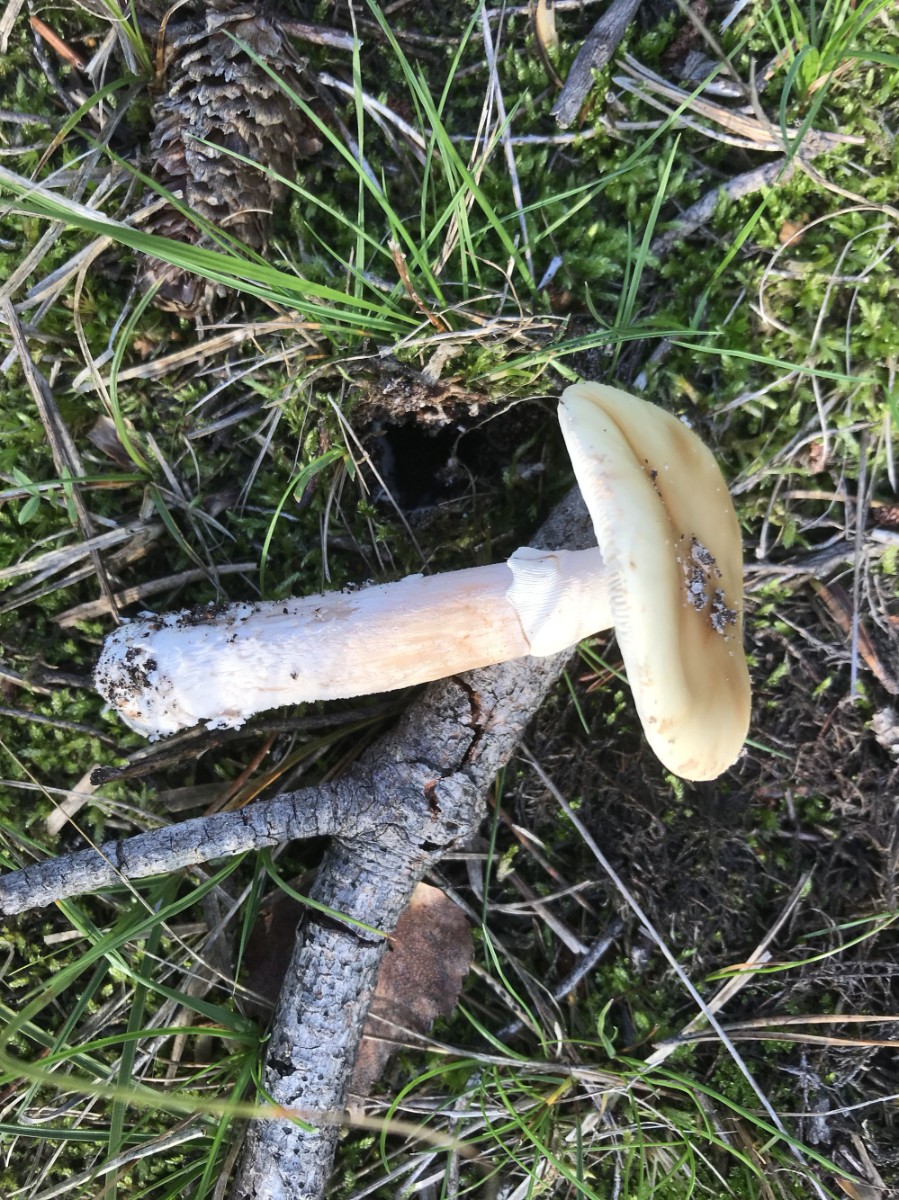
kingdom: Fungi
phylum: Basidiomycota
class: Agaricomycetes
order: Agaricales
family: Amanitaceae
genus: Amanita
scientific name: Amanita gemmata
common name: okkergul fluesvamp
